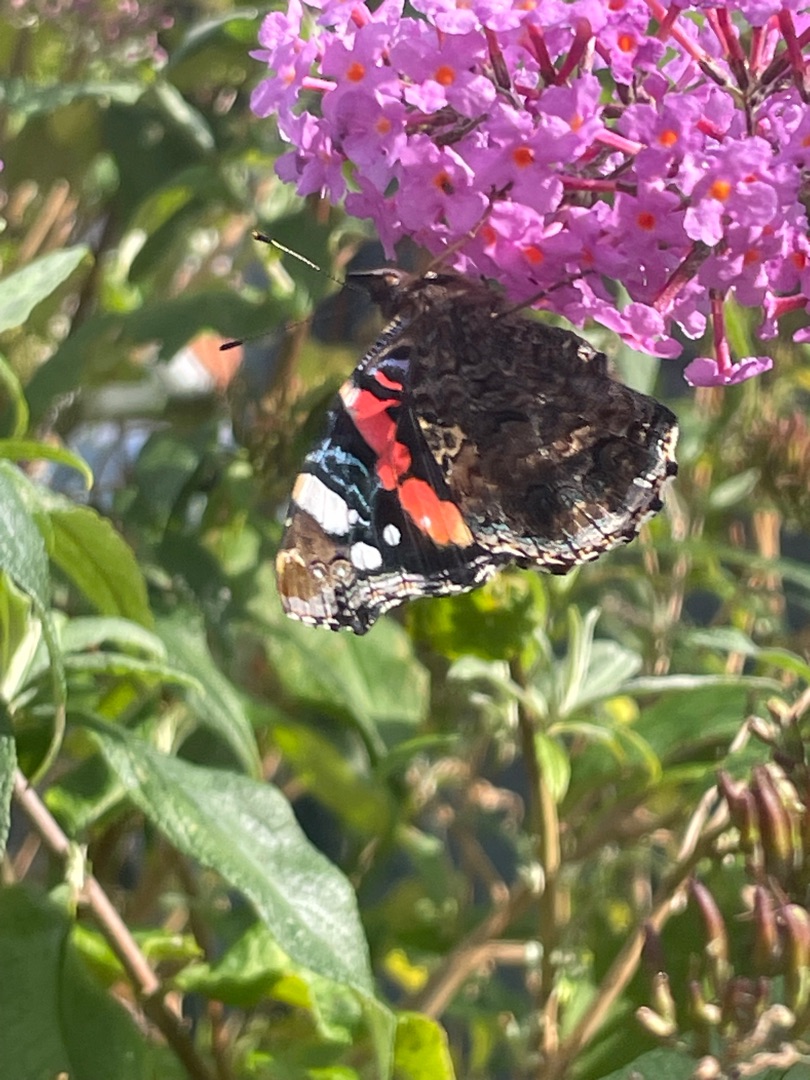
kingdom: Animalia
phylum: Arthropoda
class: Insecta
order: Lepidoptera
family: Nymphalidae
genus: Vanessa
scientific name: Vanessa atalanta
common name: Admiral
